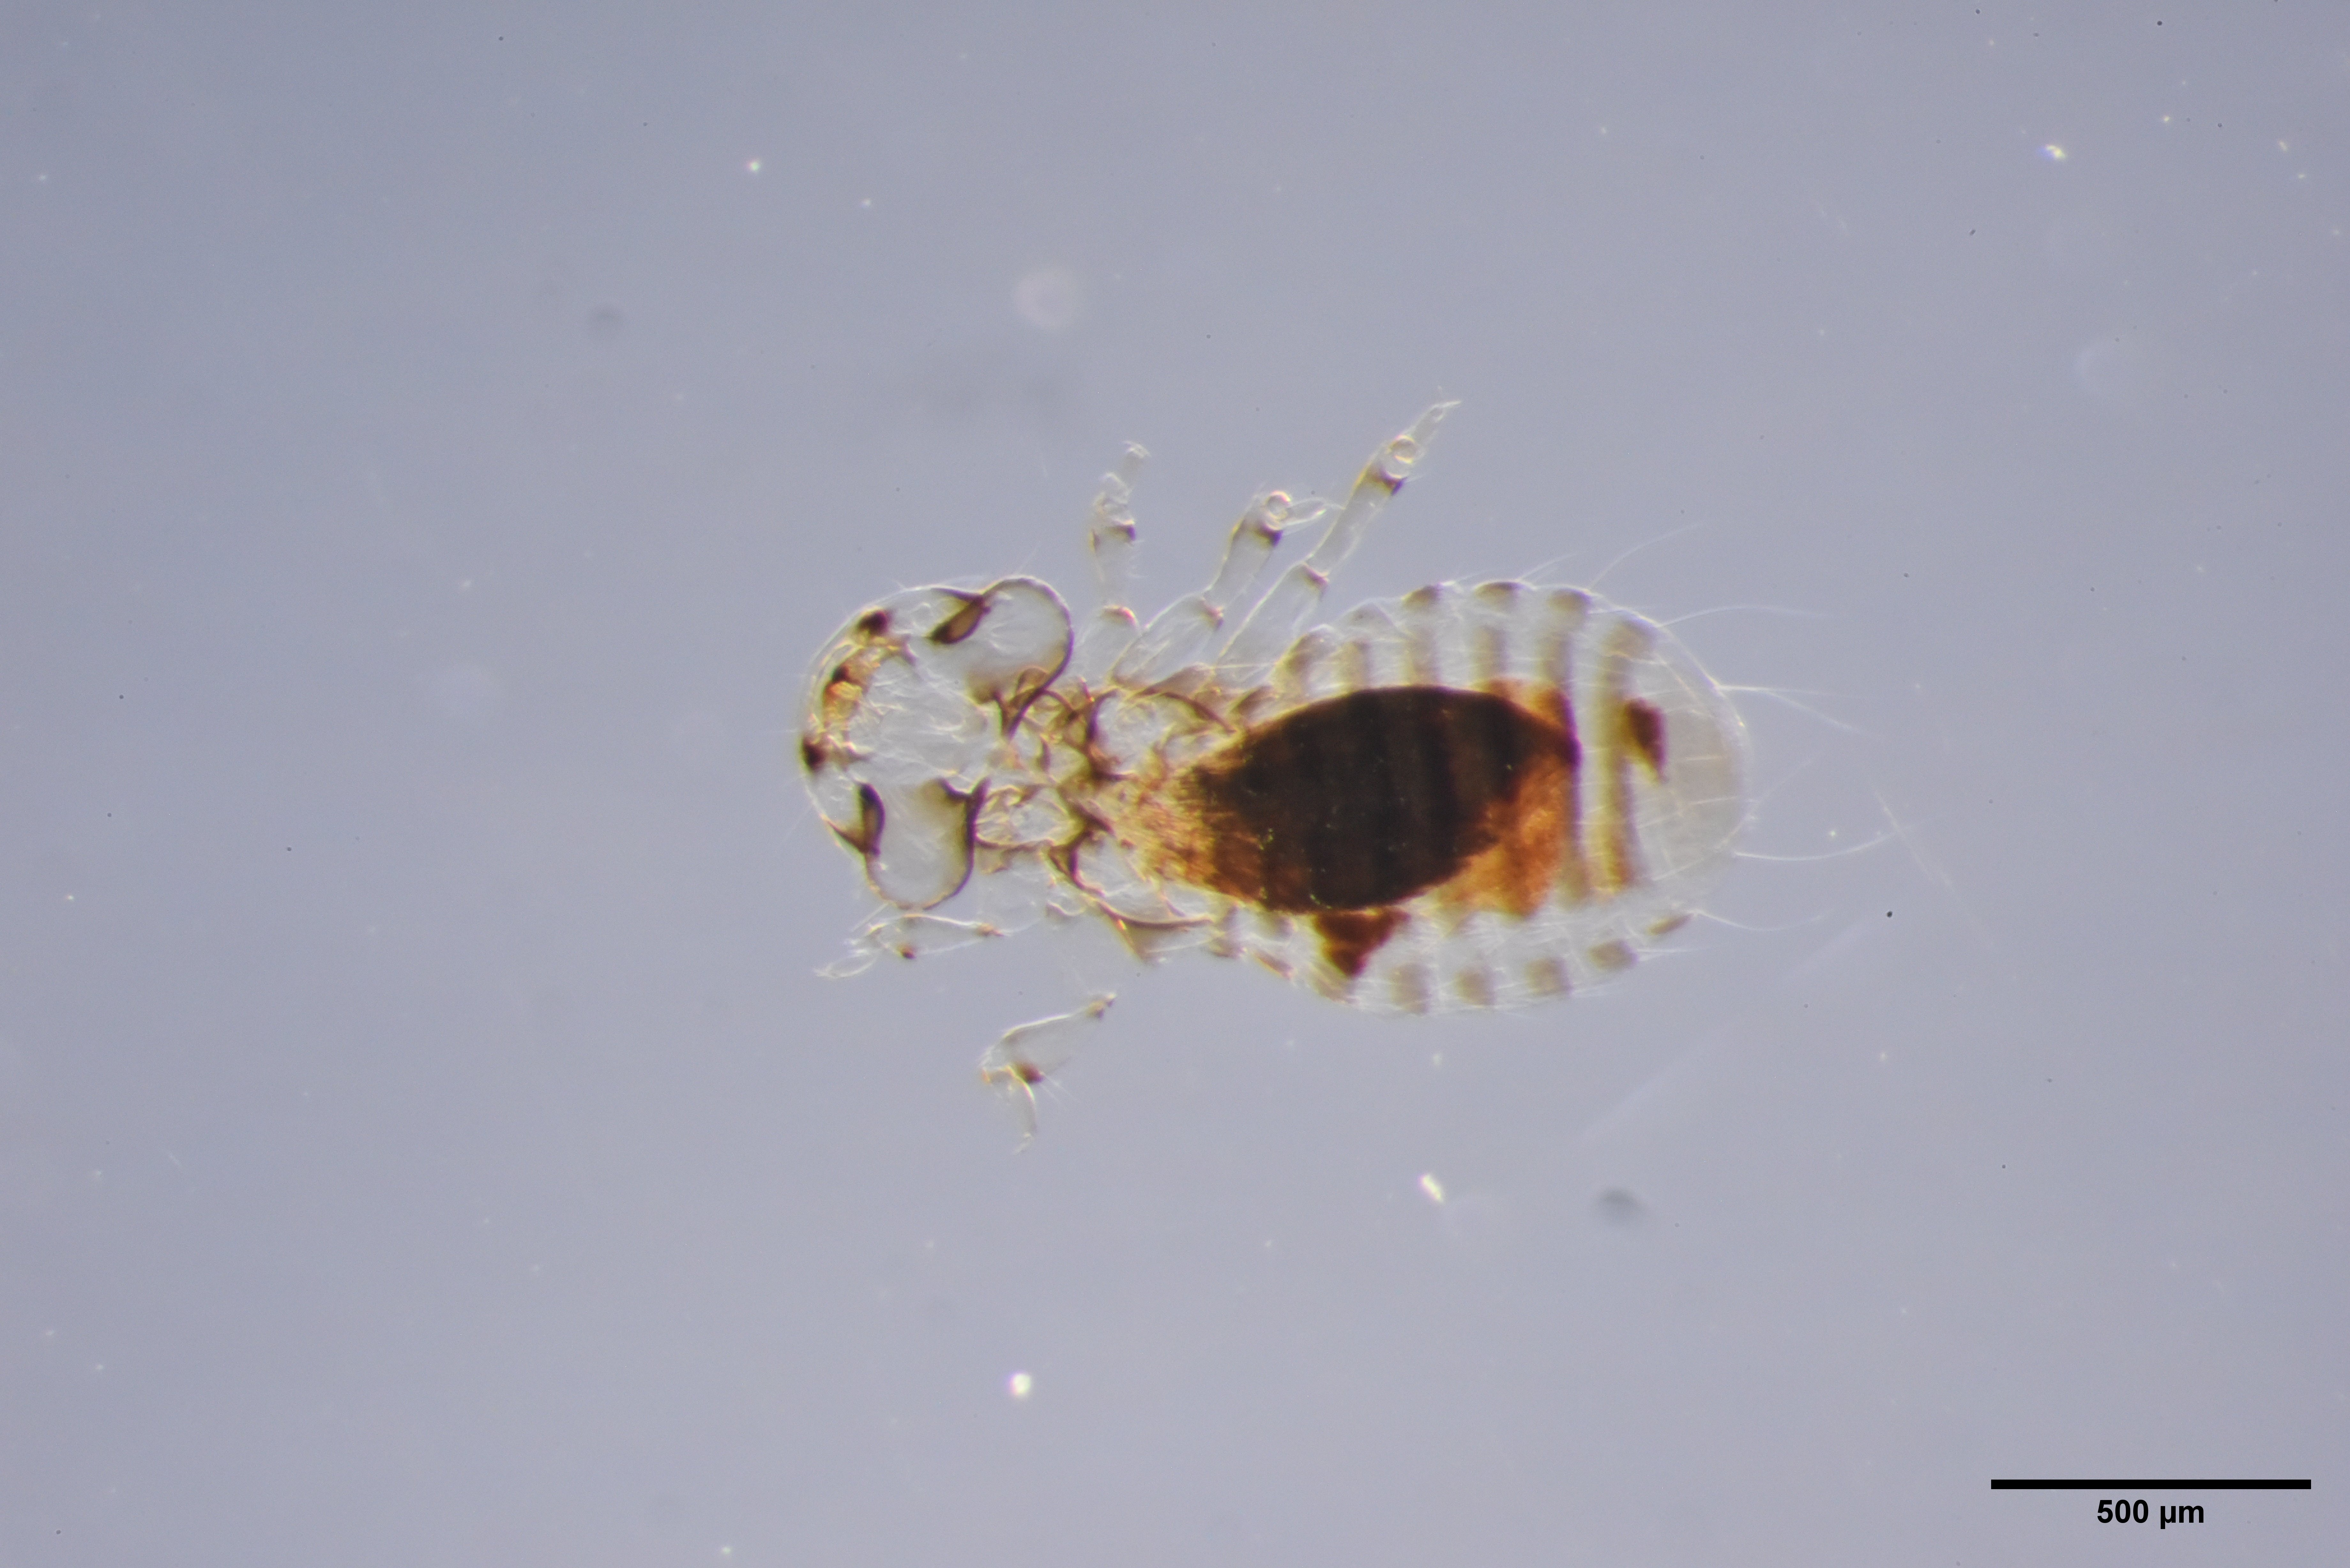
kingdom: Animalia
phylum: Arthropoda
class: Insecta
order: Psocodea
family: Menoponidae
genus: Myrsidea
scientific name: Myrsidea cornicis
